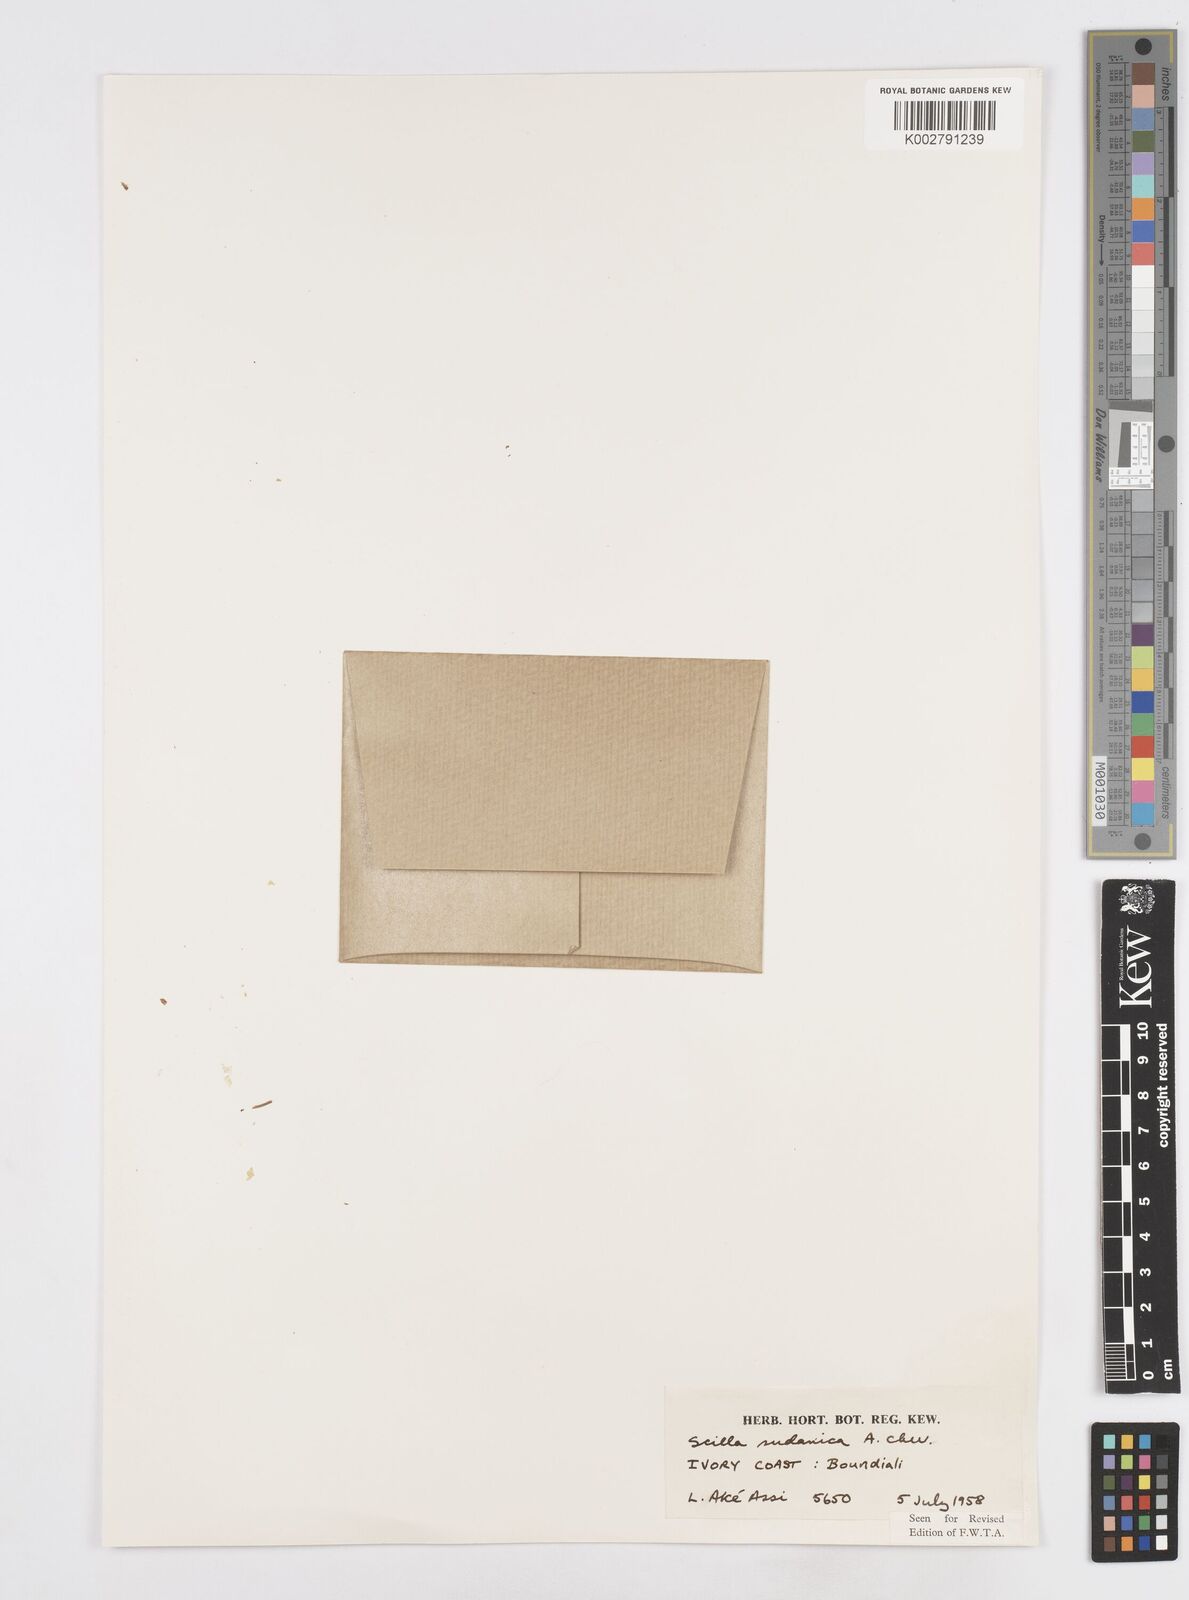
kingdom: Plantae
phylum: Tracheophyta
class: Liliopsida
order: Asparagales
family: Asparagaceae
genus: Ledebouria
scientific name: Ledebouria sudanica
